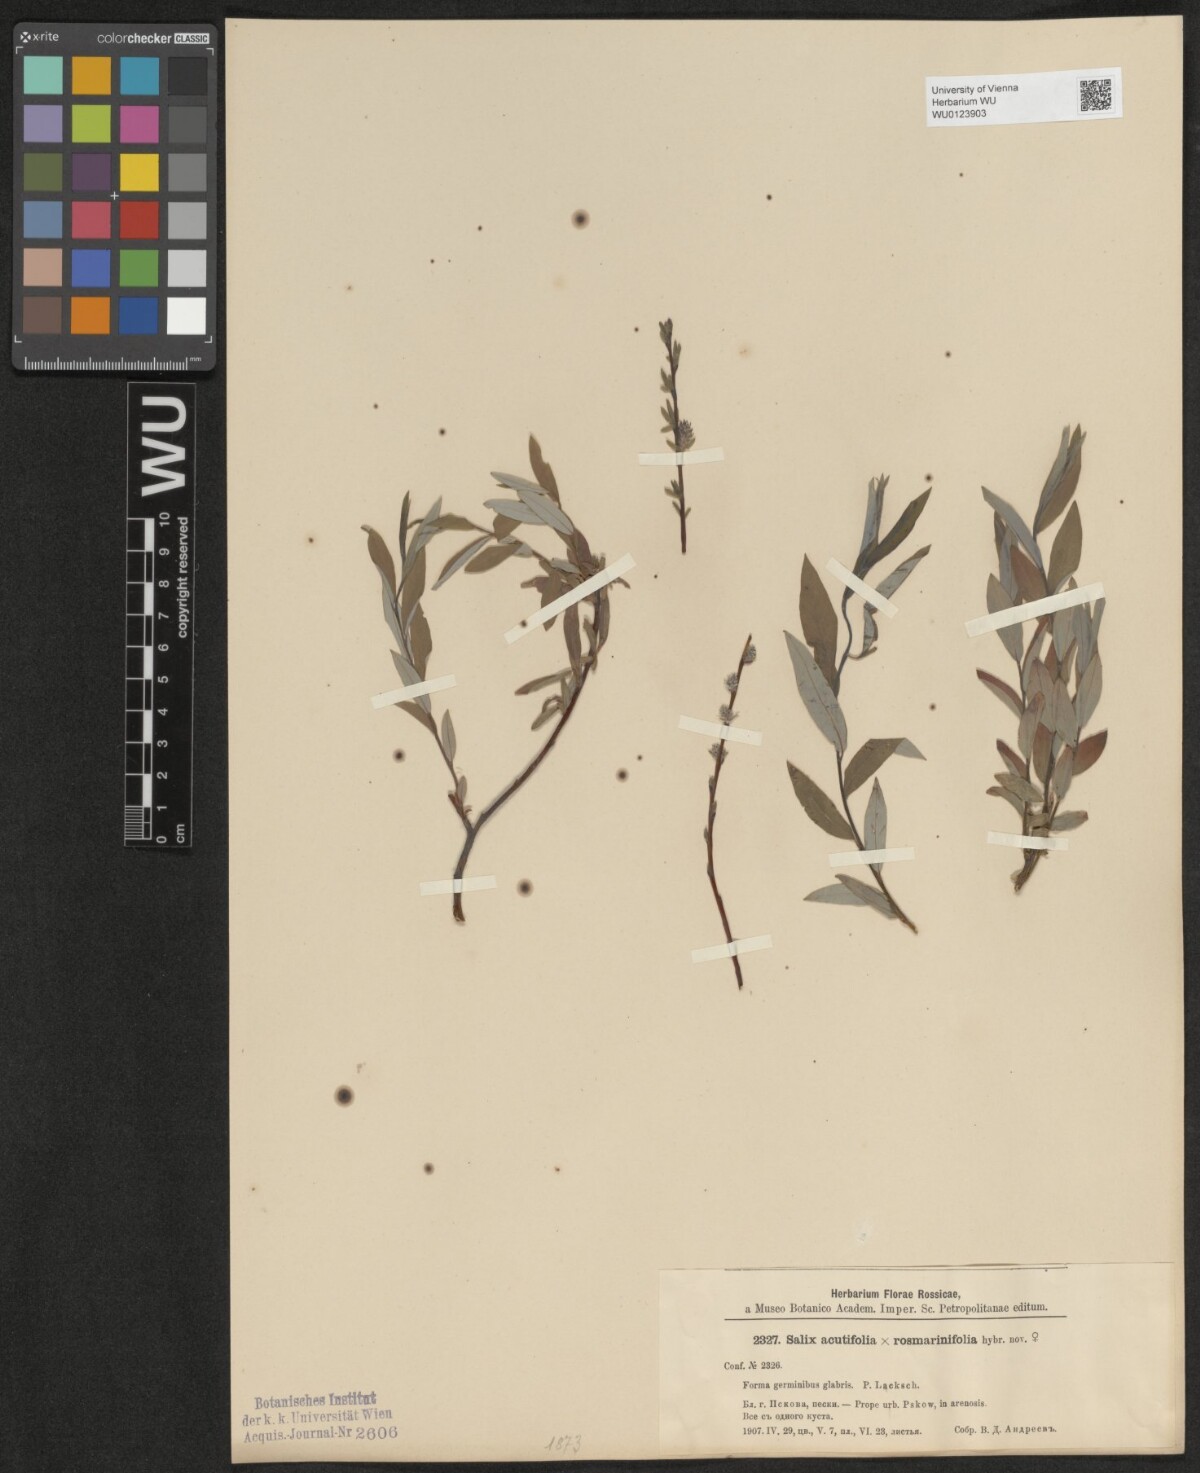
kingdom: Plantae
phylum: Tracheophyta
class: Magnoliopsida
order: Malpighiales
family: Salicaceae
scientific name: Salicaceae
